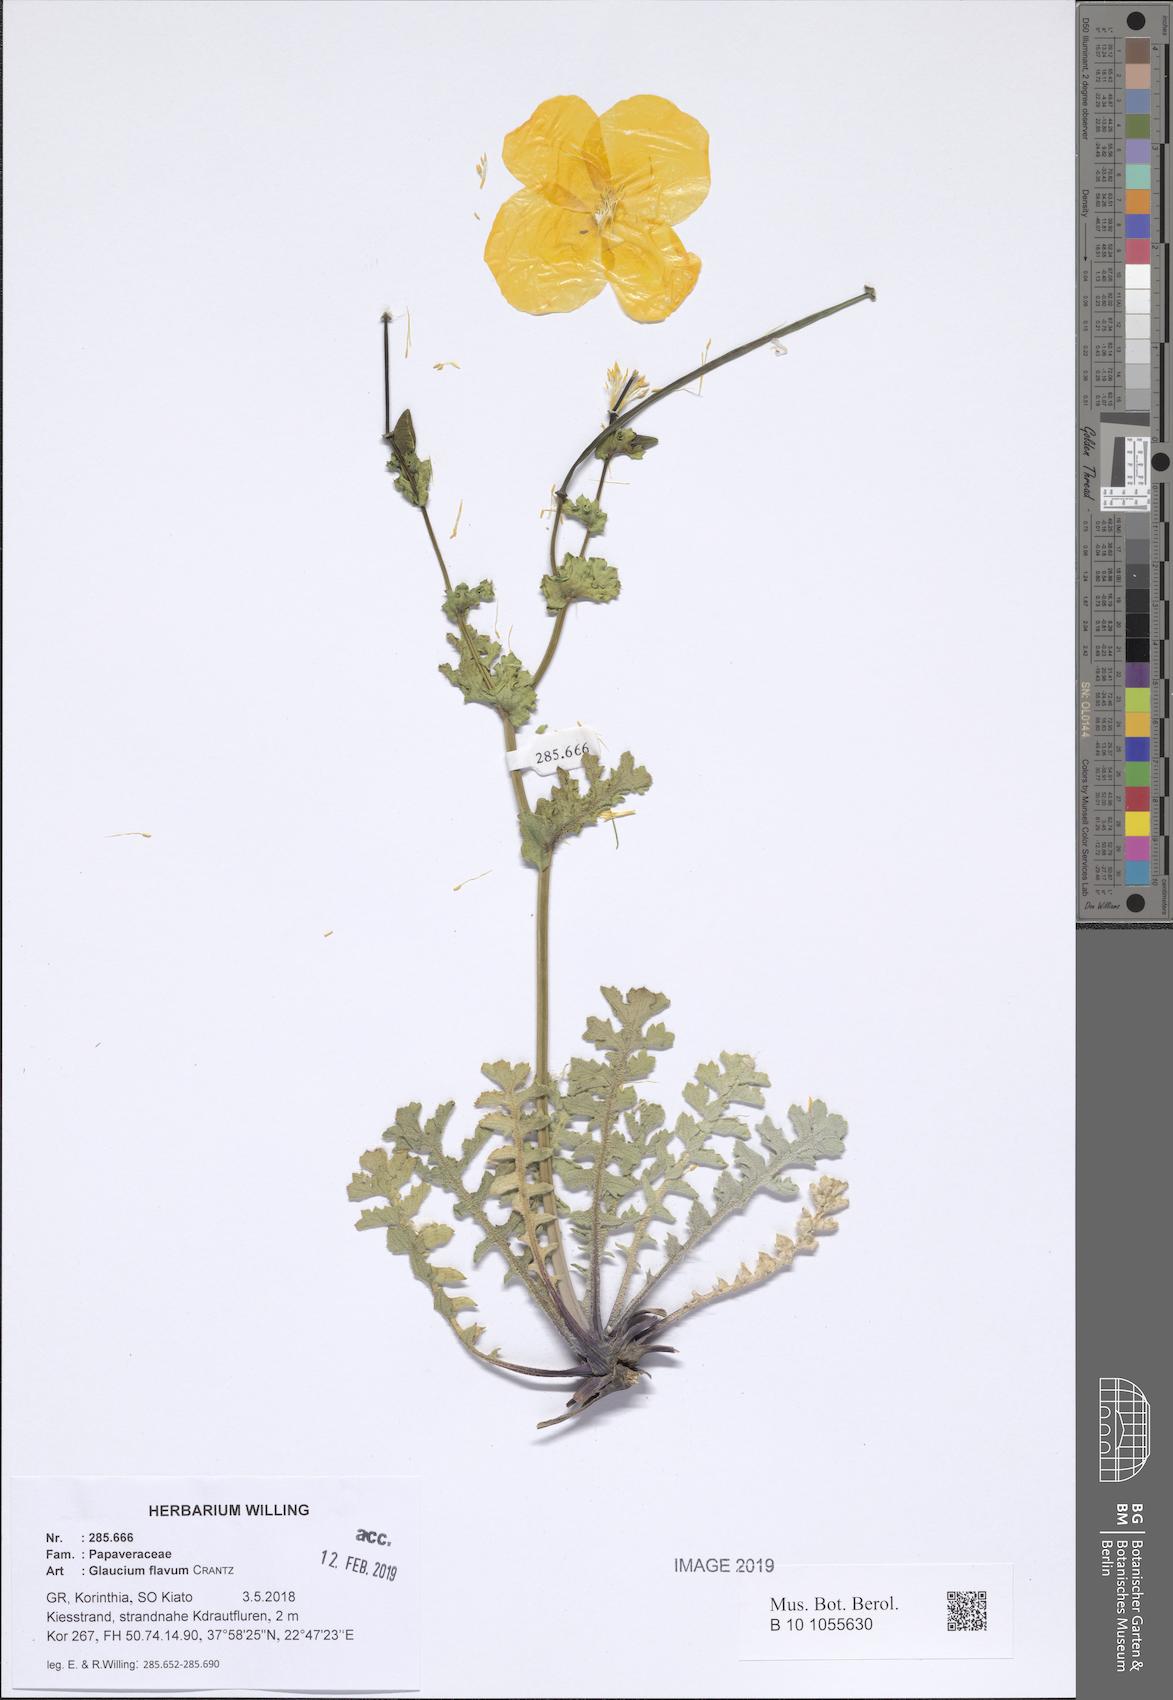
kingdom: Plantae
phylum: Tracheophyta
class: Magnoliopsida
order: Ranunculales
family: Papaveraceae
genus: Glaucium
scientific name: Glaucium flavum
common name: Yellow horned-poppy
